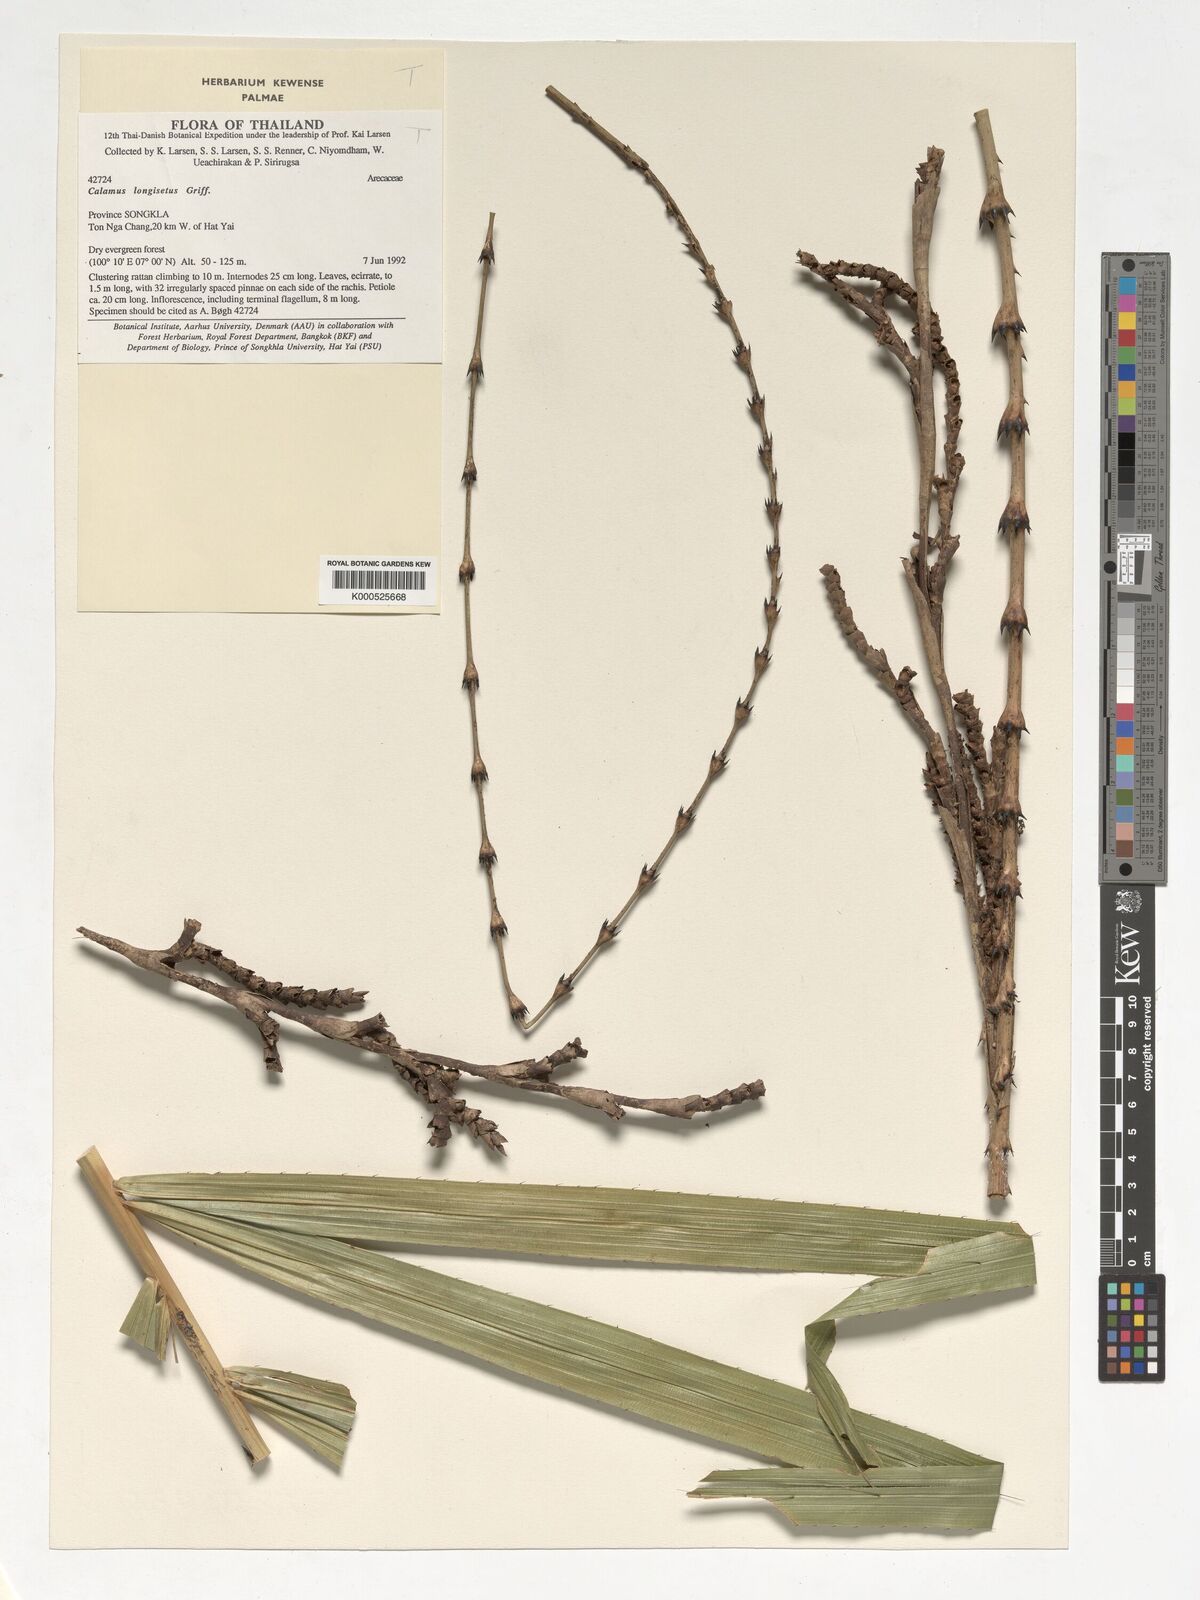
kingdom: Plantae
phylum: Tracheophyta
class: Liliopsida
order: Arecales
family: Arecaceae
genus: Calamus
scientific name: Calamus longisetus
